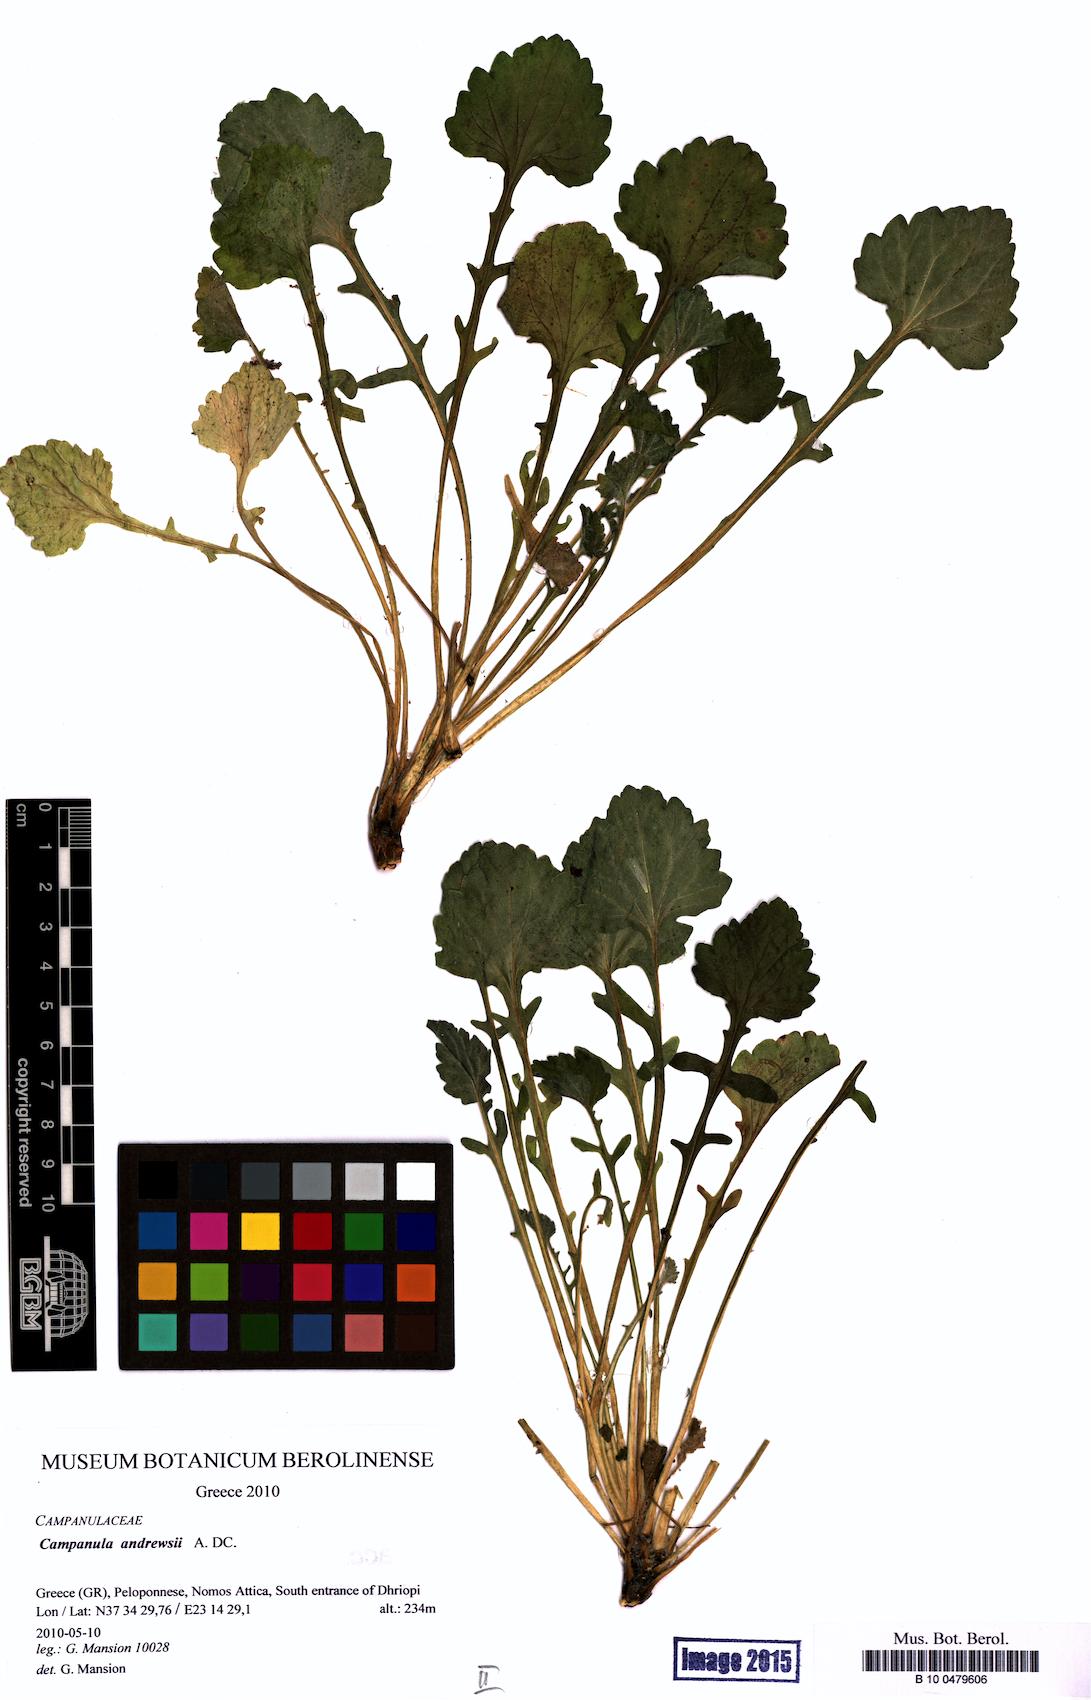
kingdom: Plantae
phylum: Tracheophyta
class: Magnoliopsida
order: Asterales
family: Campanulaceae
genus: Campanula
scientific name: Campanula andrewsii
